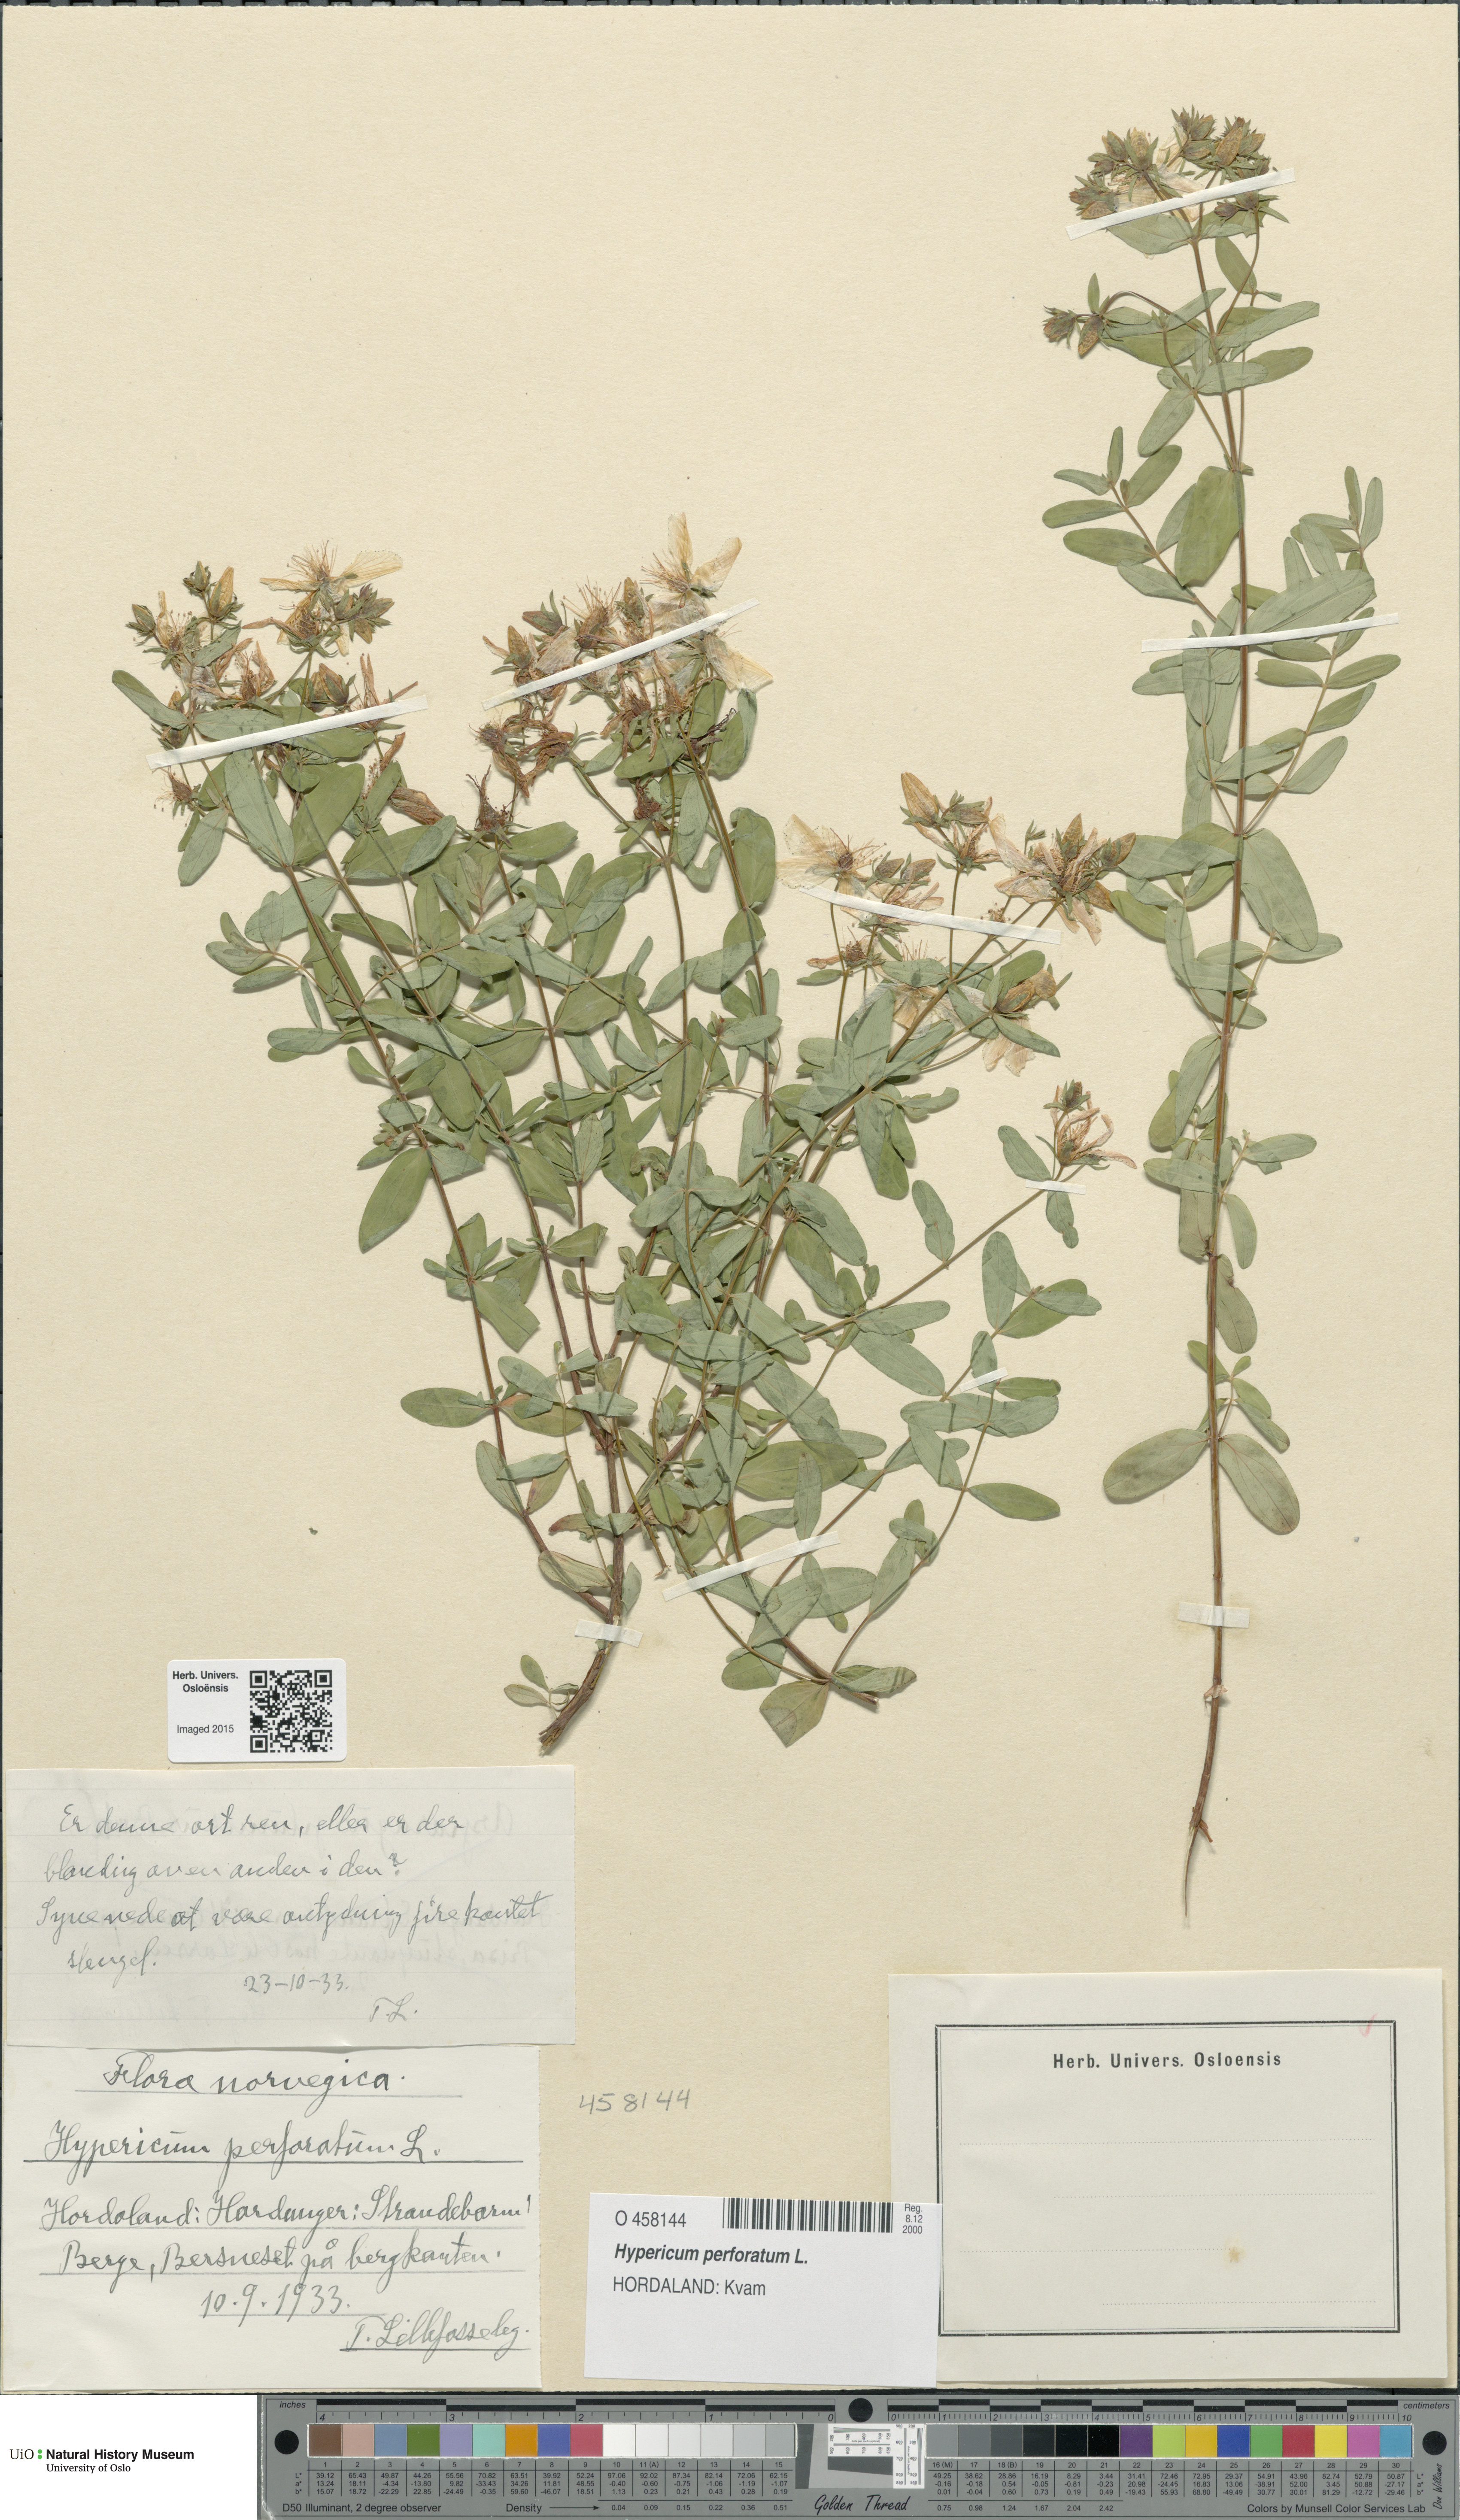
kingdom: Plantae
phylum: Tracheophyta
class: Magnoliopsida
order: Malpighiales
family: Hypericaceae
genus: Hypericum
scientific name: Hypericum perforatum
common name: Common st. johnswort
